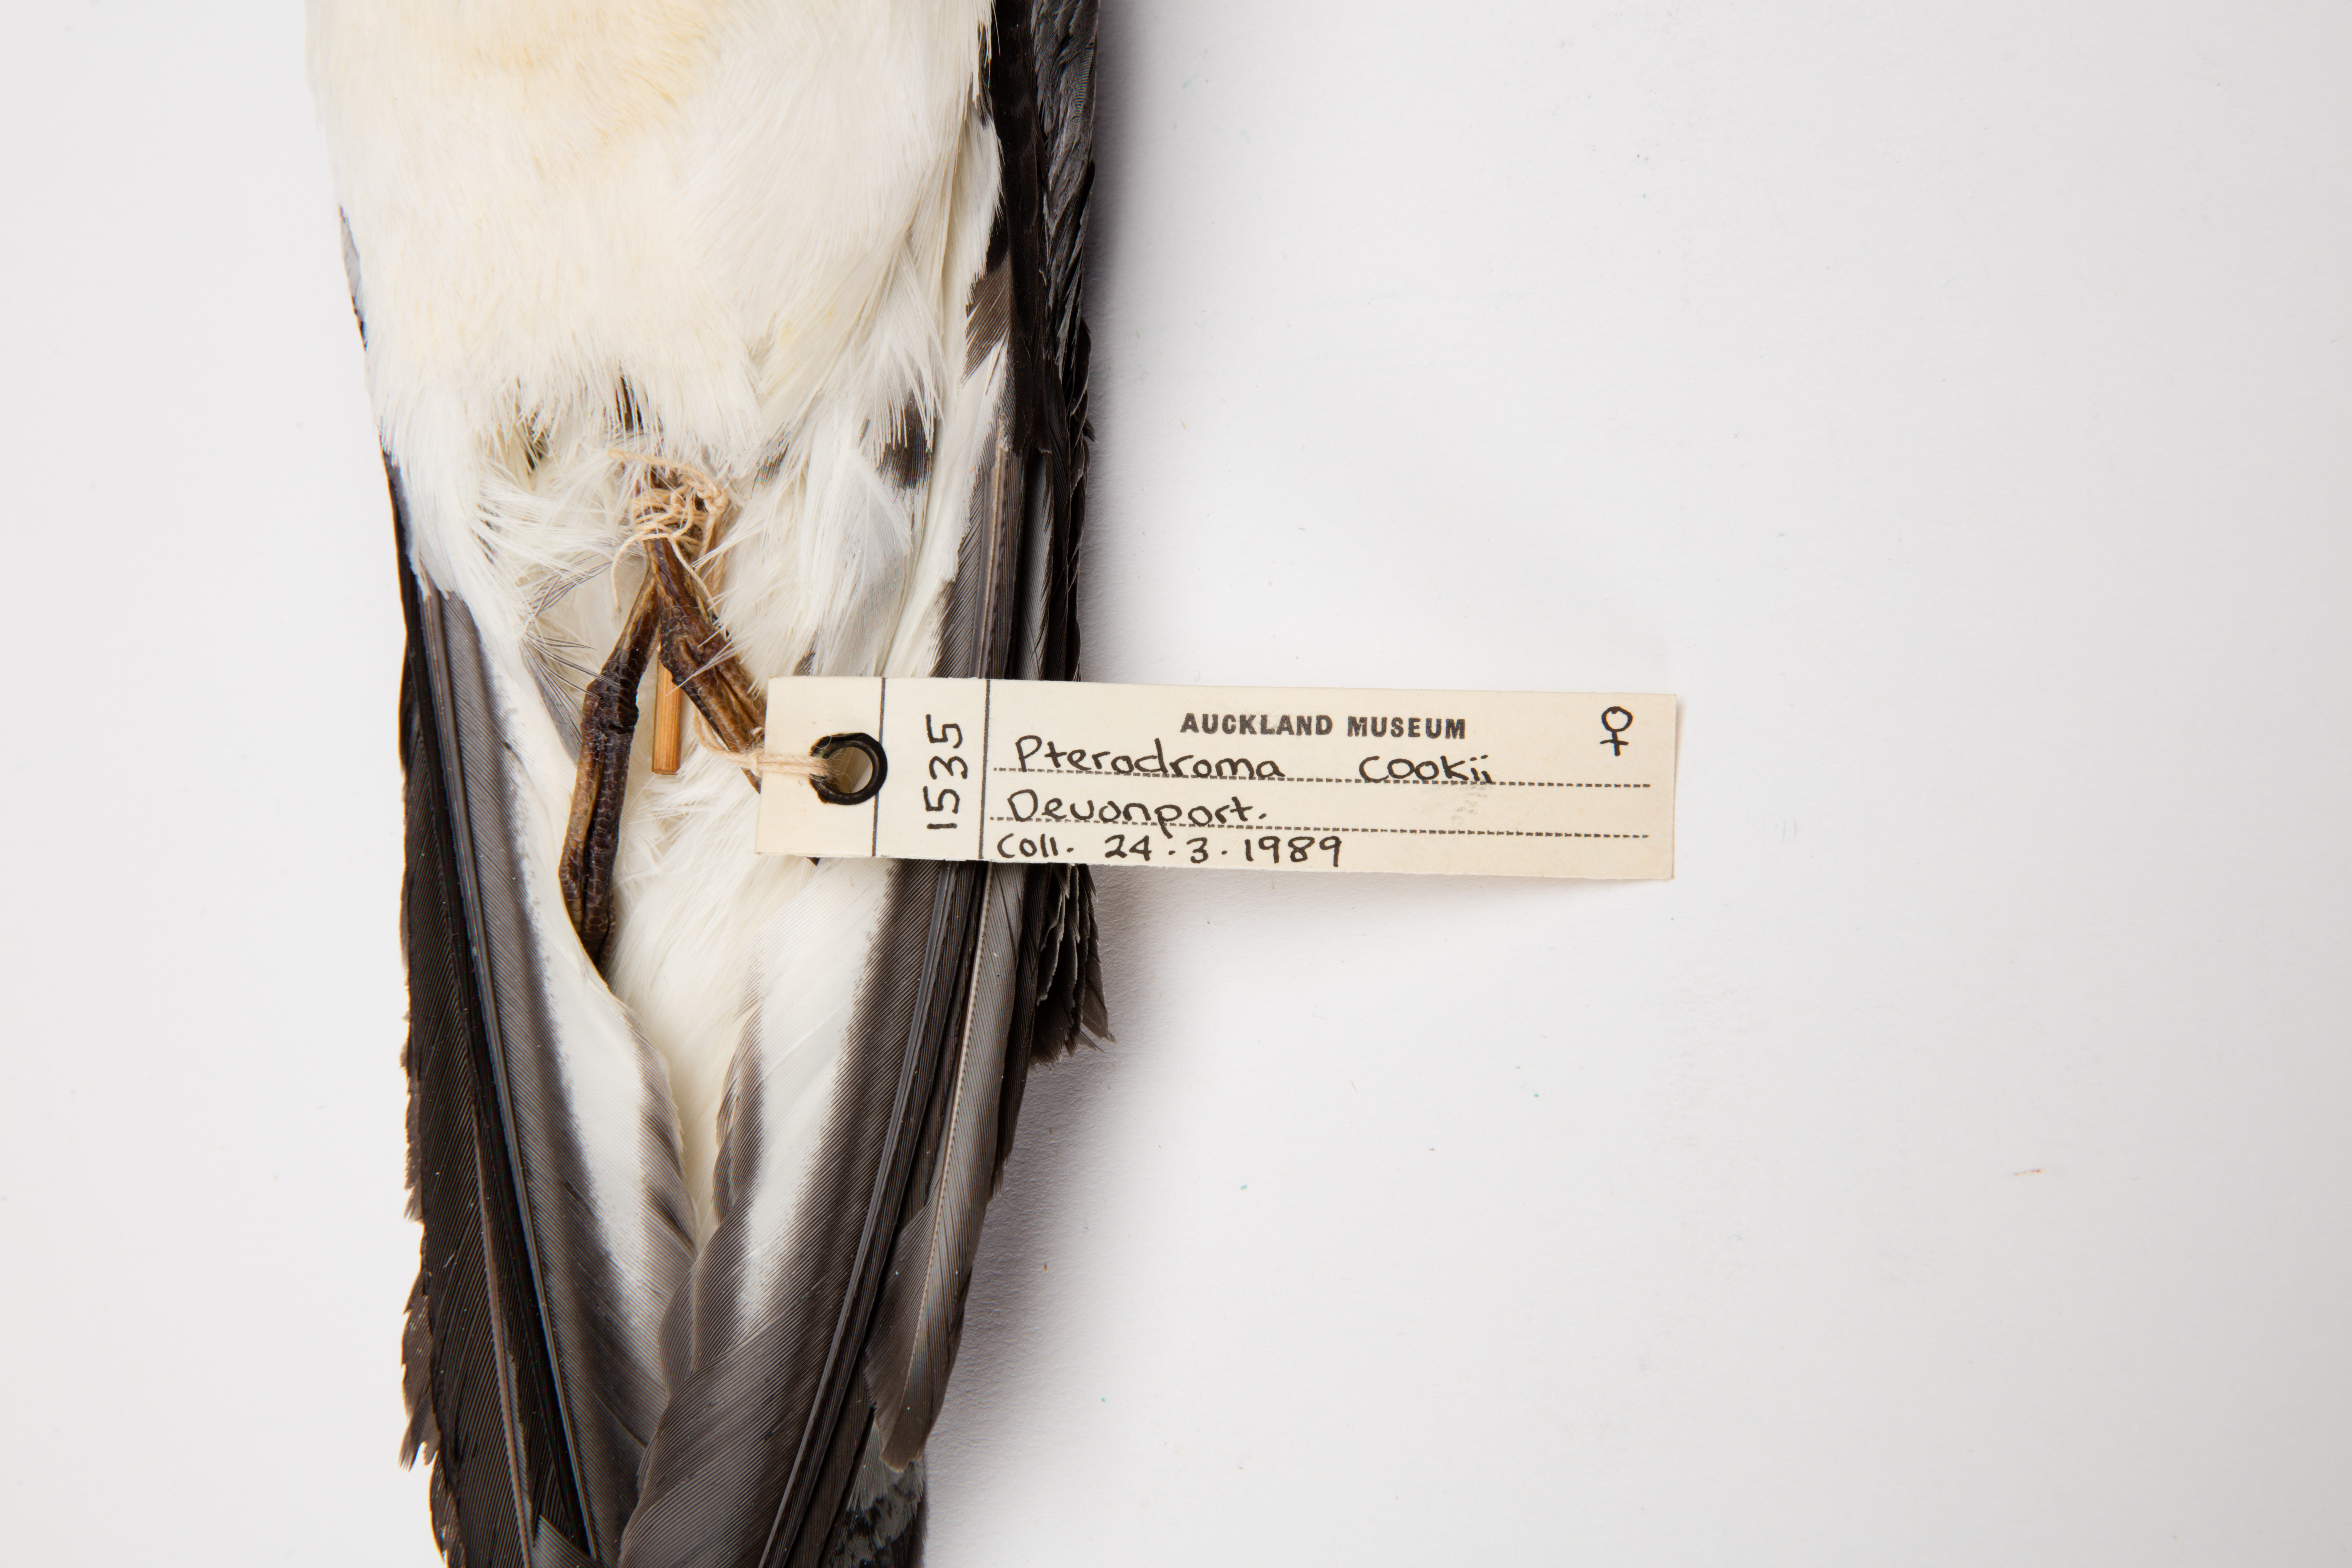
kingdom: Animalia
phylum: Chordata
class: Aves
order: Procellariiformes
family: Procellariidae
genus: Pterodroma
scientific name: Pterodroma cookii
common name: Cook's petrel
